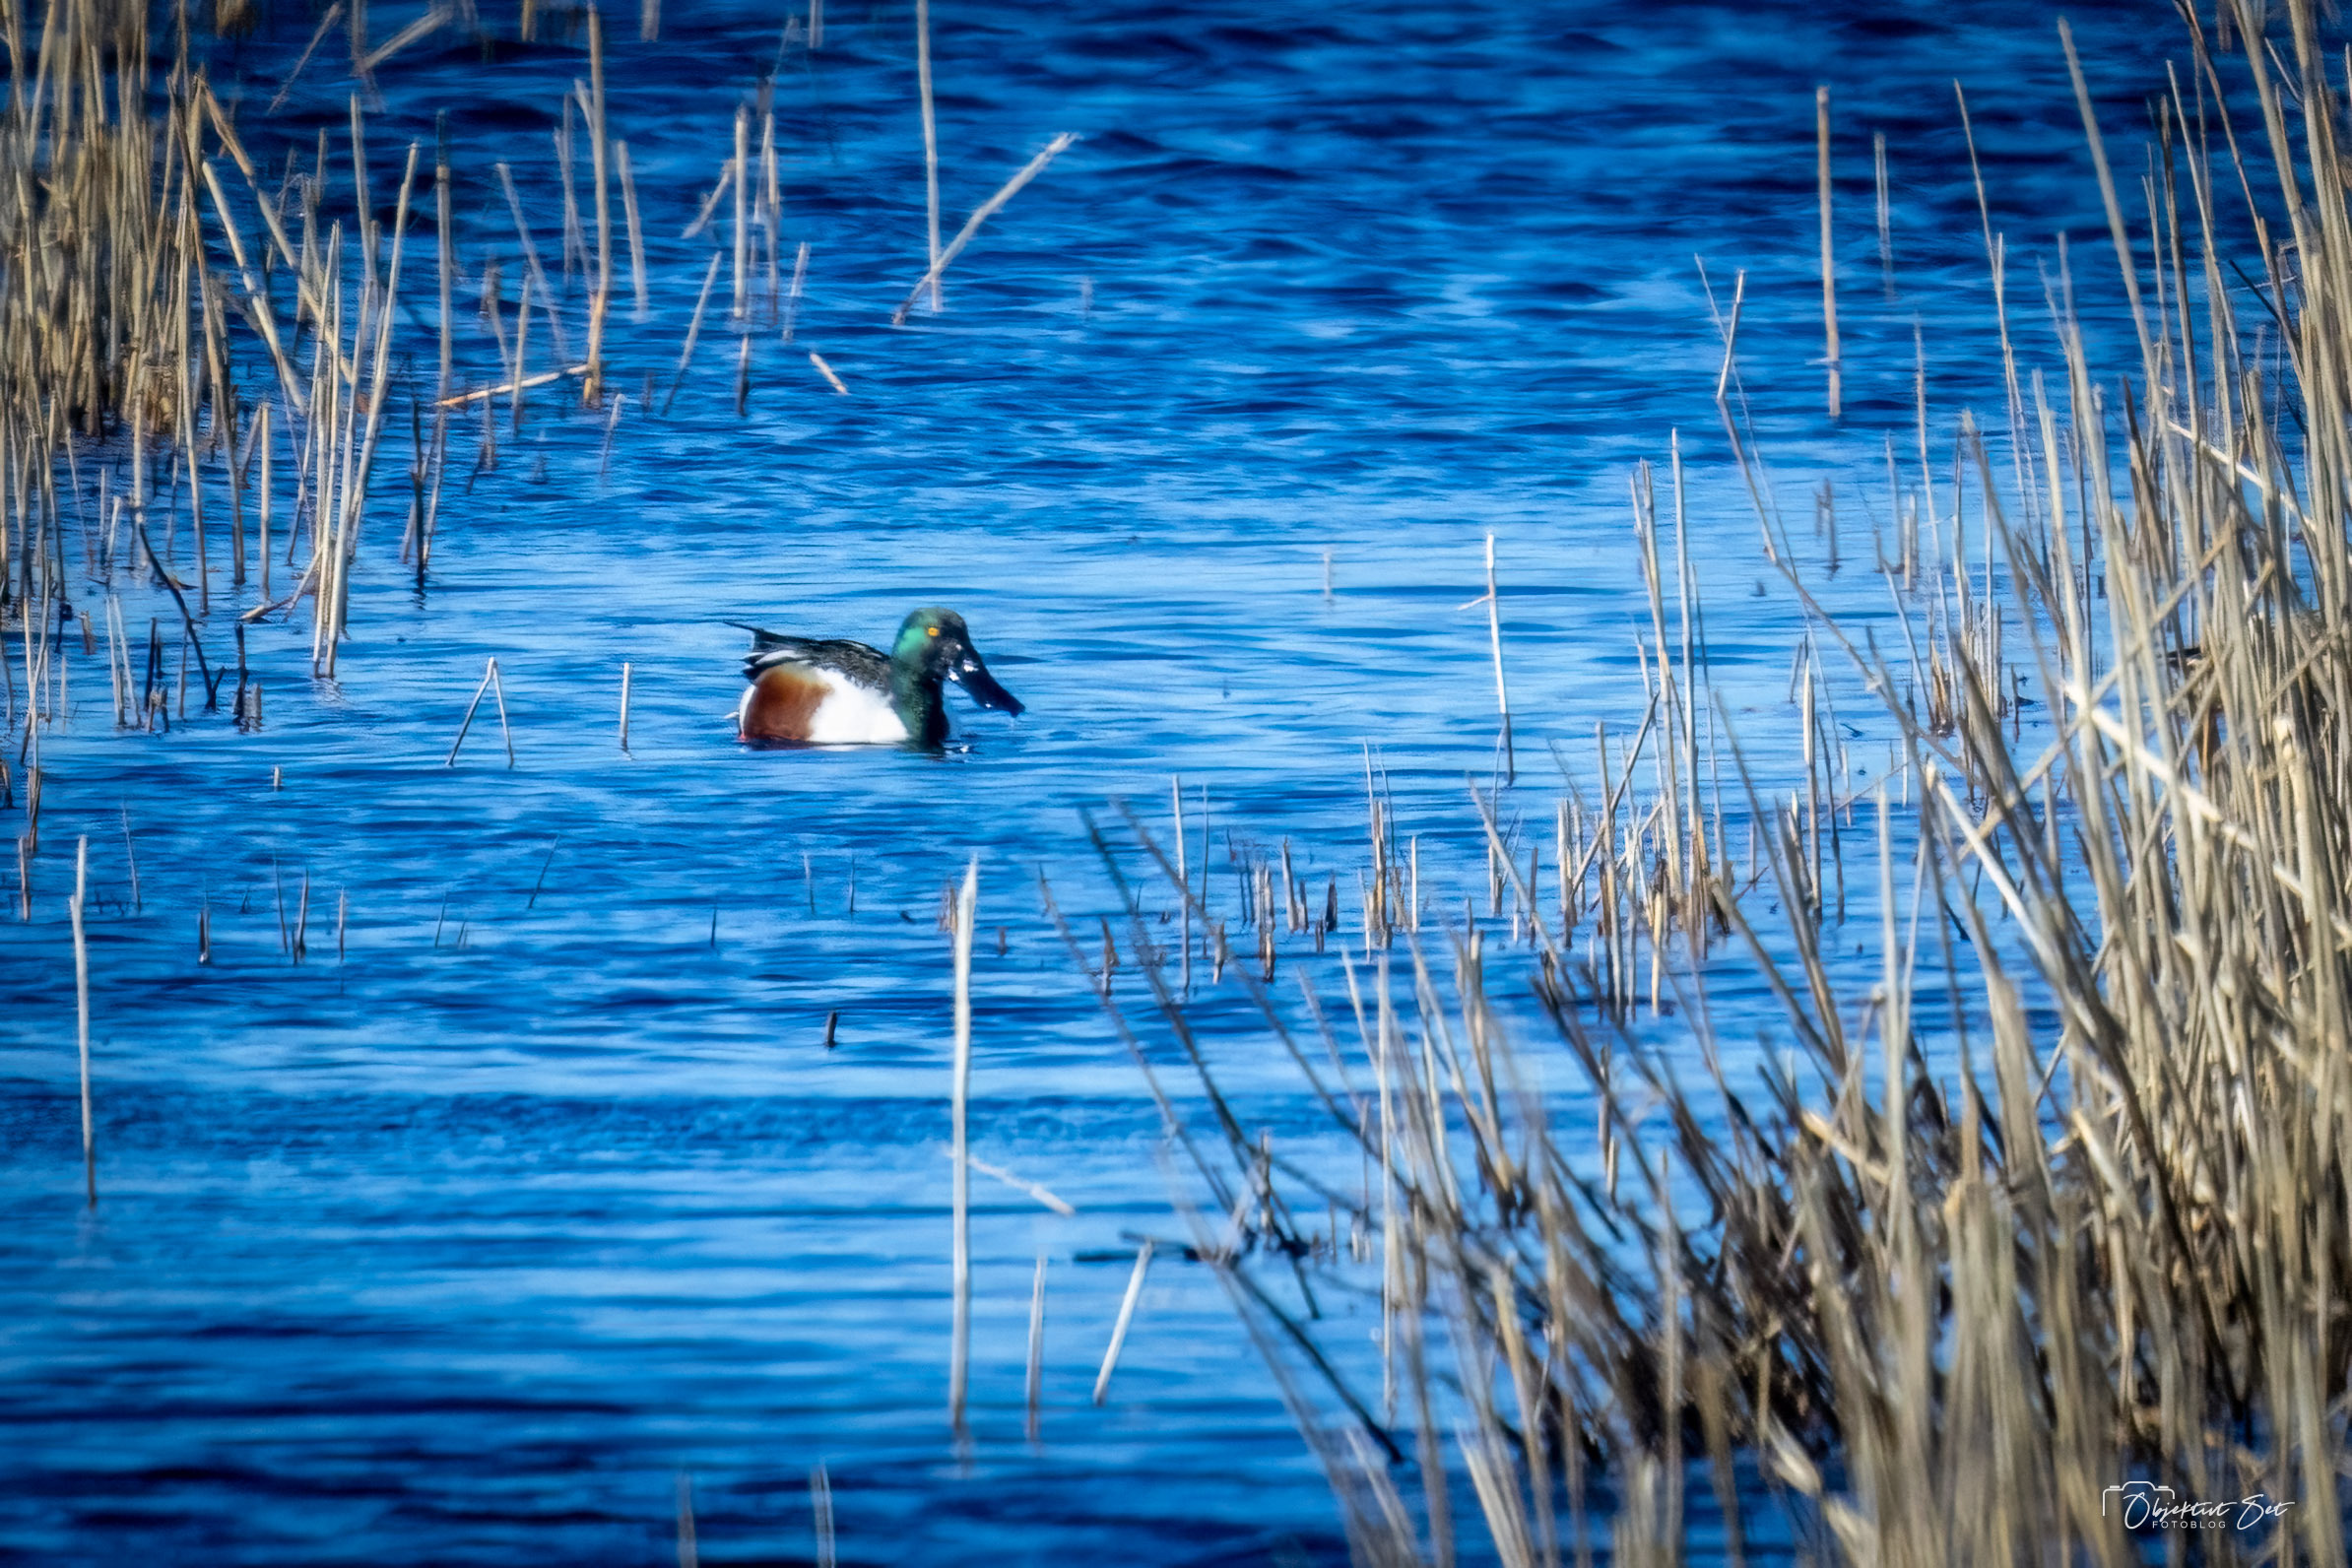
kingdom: Animalia
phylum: Chordata
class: Aves
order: Anseriformes
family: Anatidae
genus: Spatula
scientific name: Spatula clypeata
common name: Skeand
